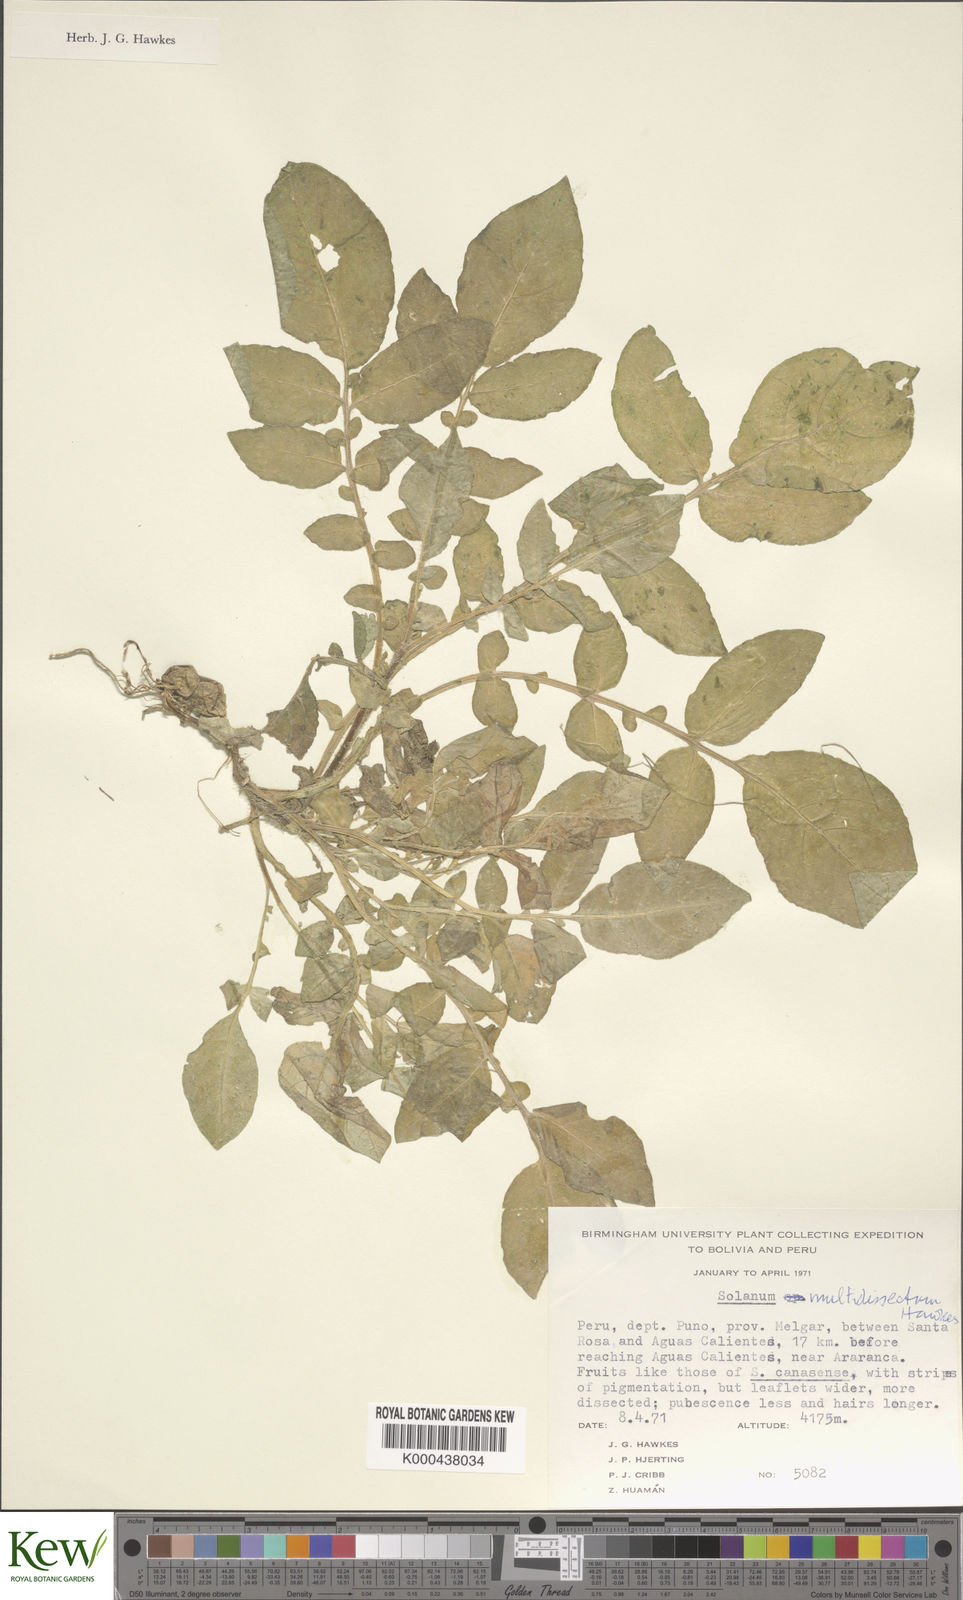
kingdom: Plantae
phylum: Tracheophyta
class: Magnoliopsida
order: Solanales
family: Solanaceae
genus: Solanum
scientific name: Solanum candolleanum
